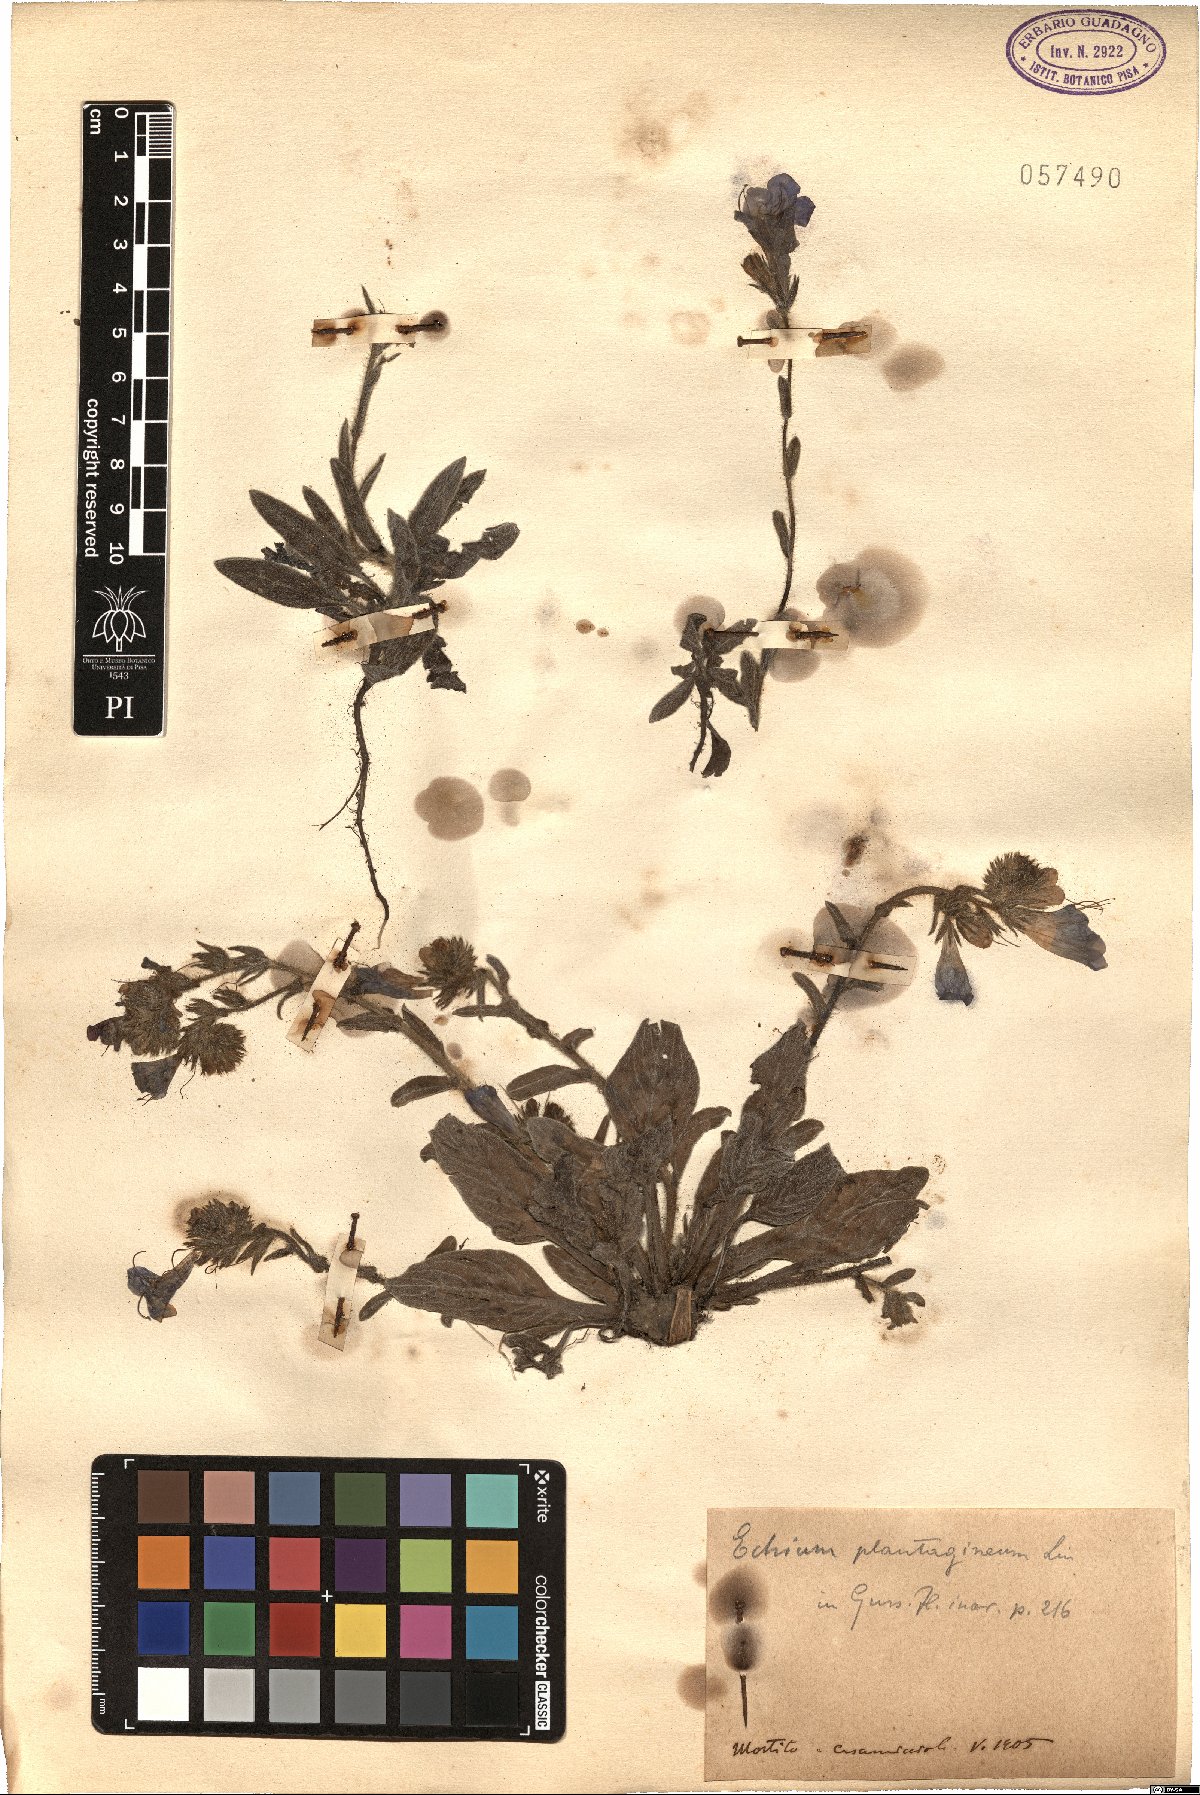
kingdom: Plantae
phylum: Tracheophyta
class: Magnoliopsida
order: Boraginales
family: Boraginaceae
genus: Echium
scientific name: Echium plantagineum
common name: Purple viper's-bugloss
